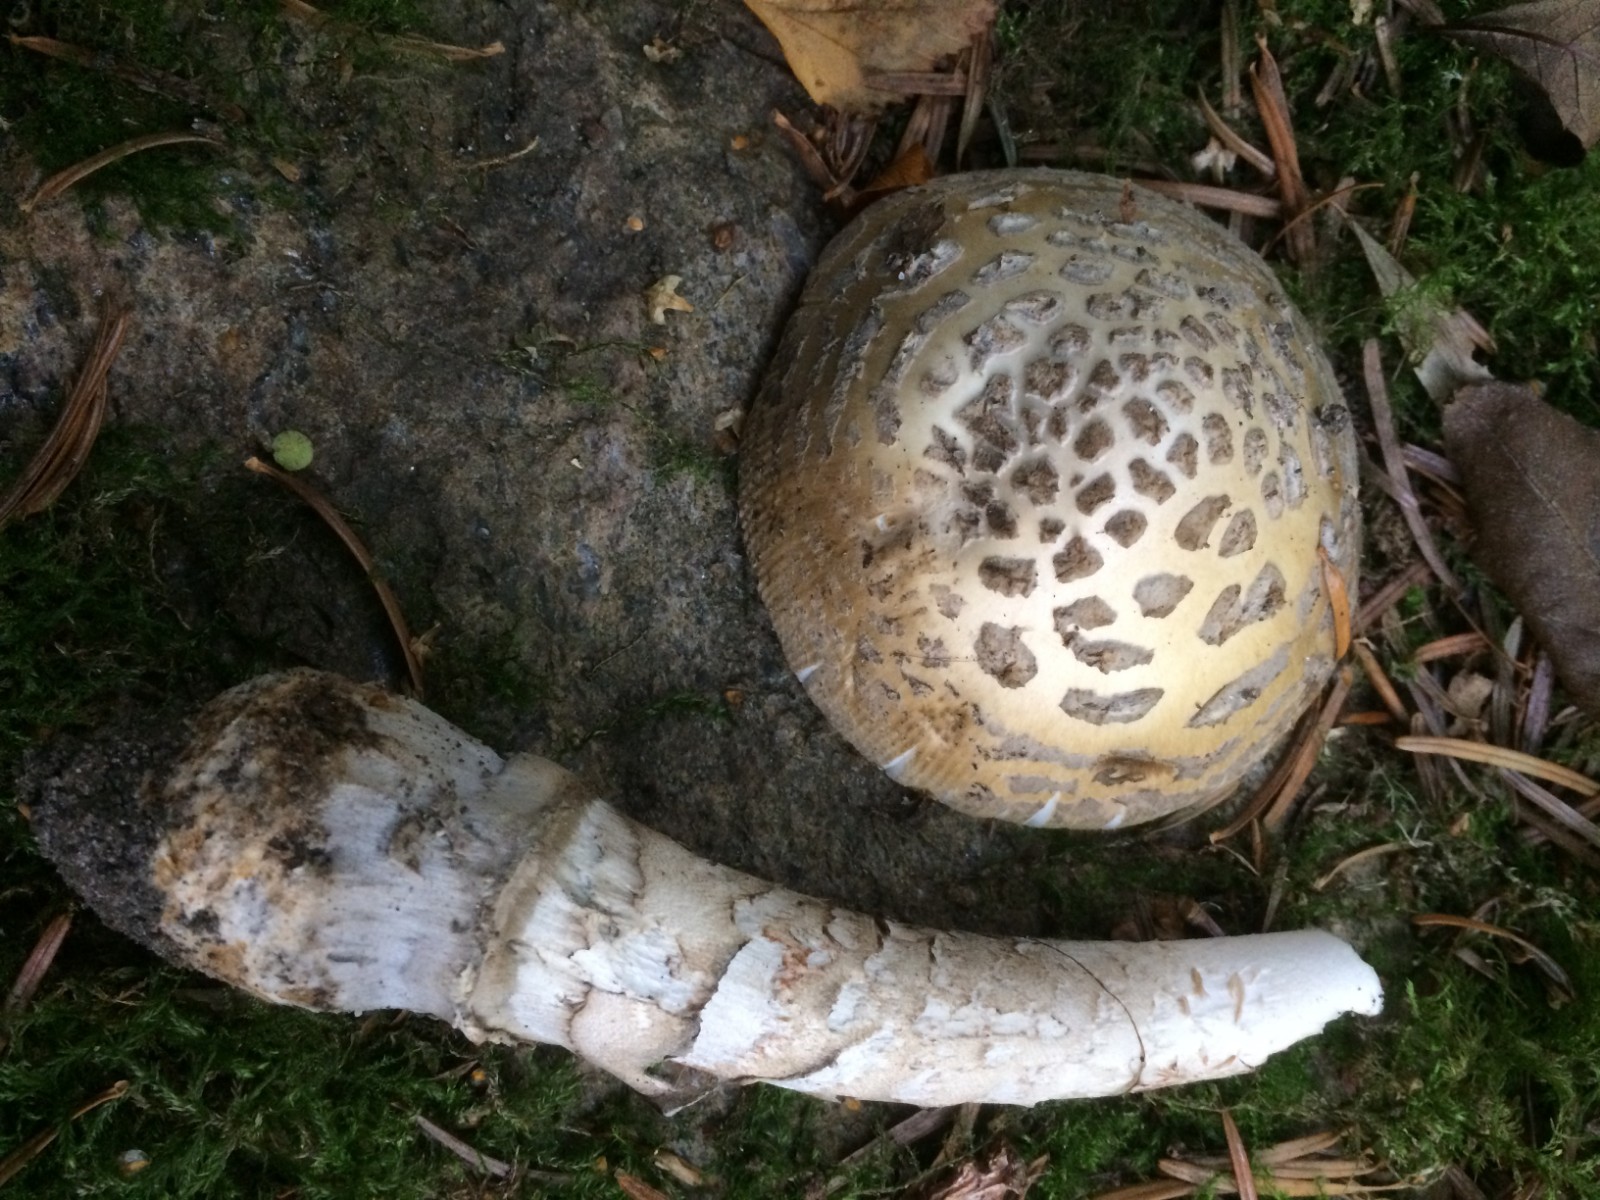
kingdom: Fungi
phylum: Basidiomycota
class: Agaricomycetes
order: Agaricales
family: Amanitaceae
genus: Amanita
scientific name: Amanita ceciliae
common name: stor kam-fluesvamp
